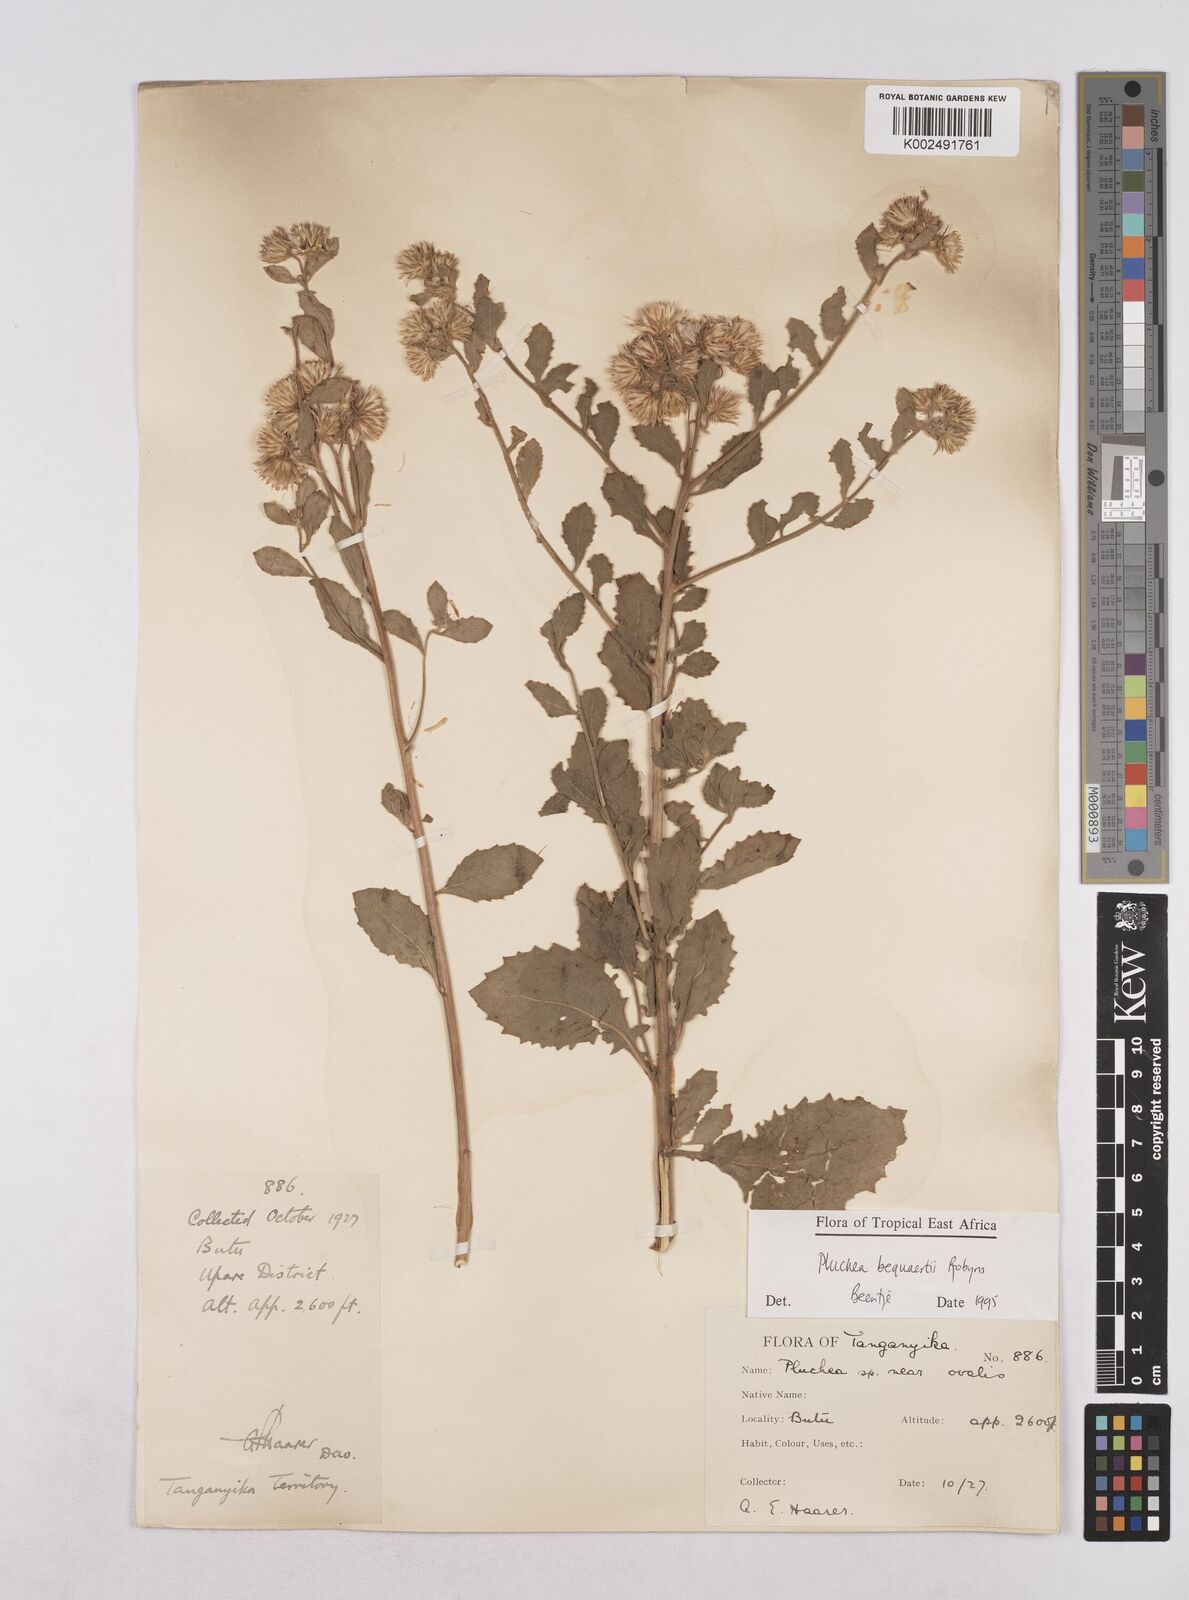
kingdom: Plantae
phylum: Tracheophyta
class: Magnoliopsida
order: Asterales
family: Asteraceae
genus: Pluchea
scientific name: Pluchea sordida
